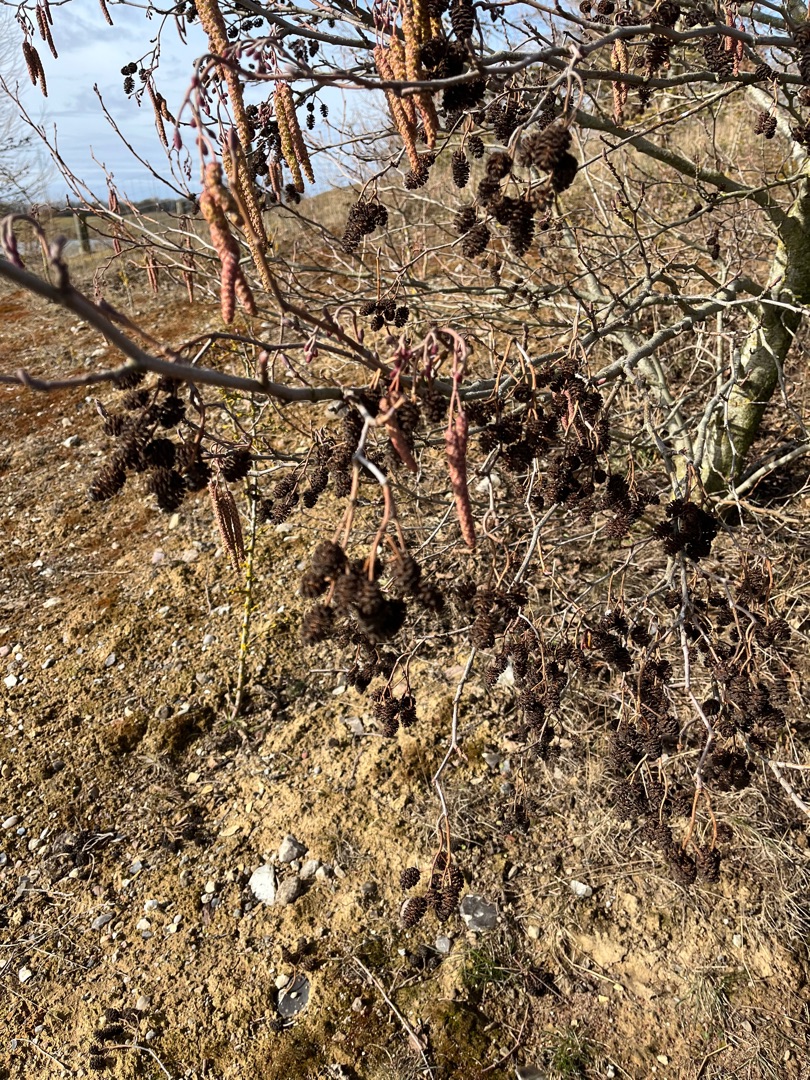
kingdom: Plantae
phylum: Tracheophyta
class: Magnoliopsida
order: Fagales
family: Betulaceae
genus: Alnus
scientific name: Alnus glutinosa
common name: Rød-el
